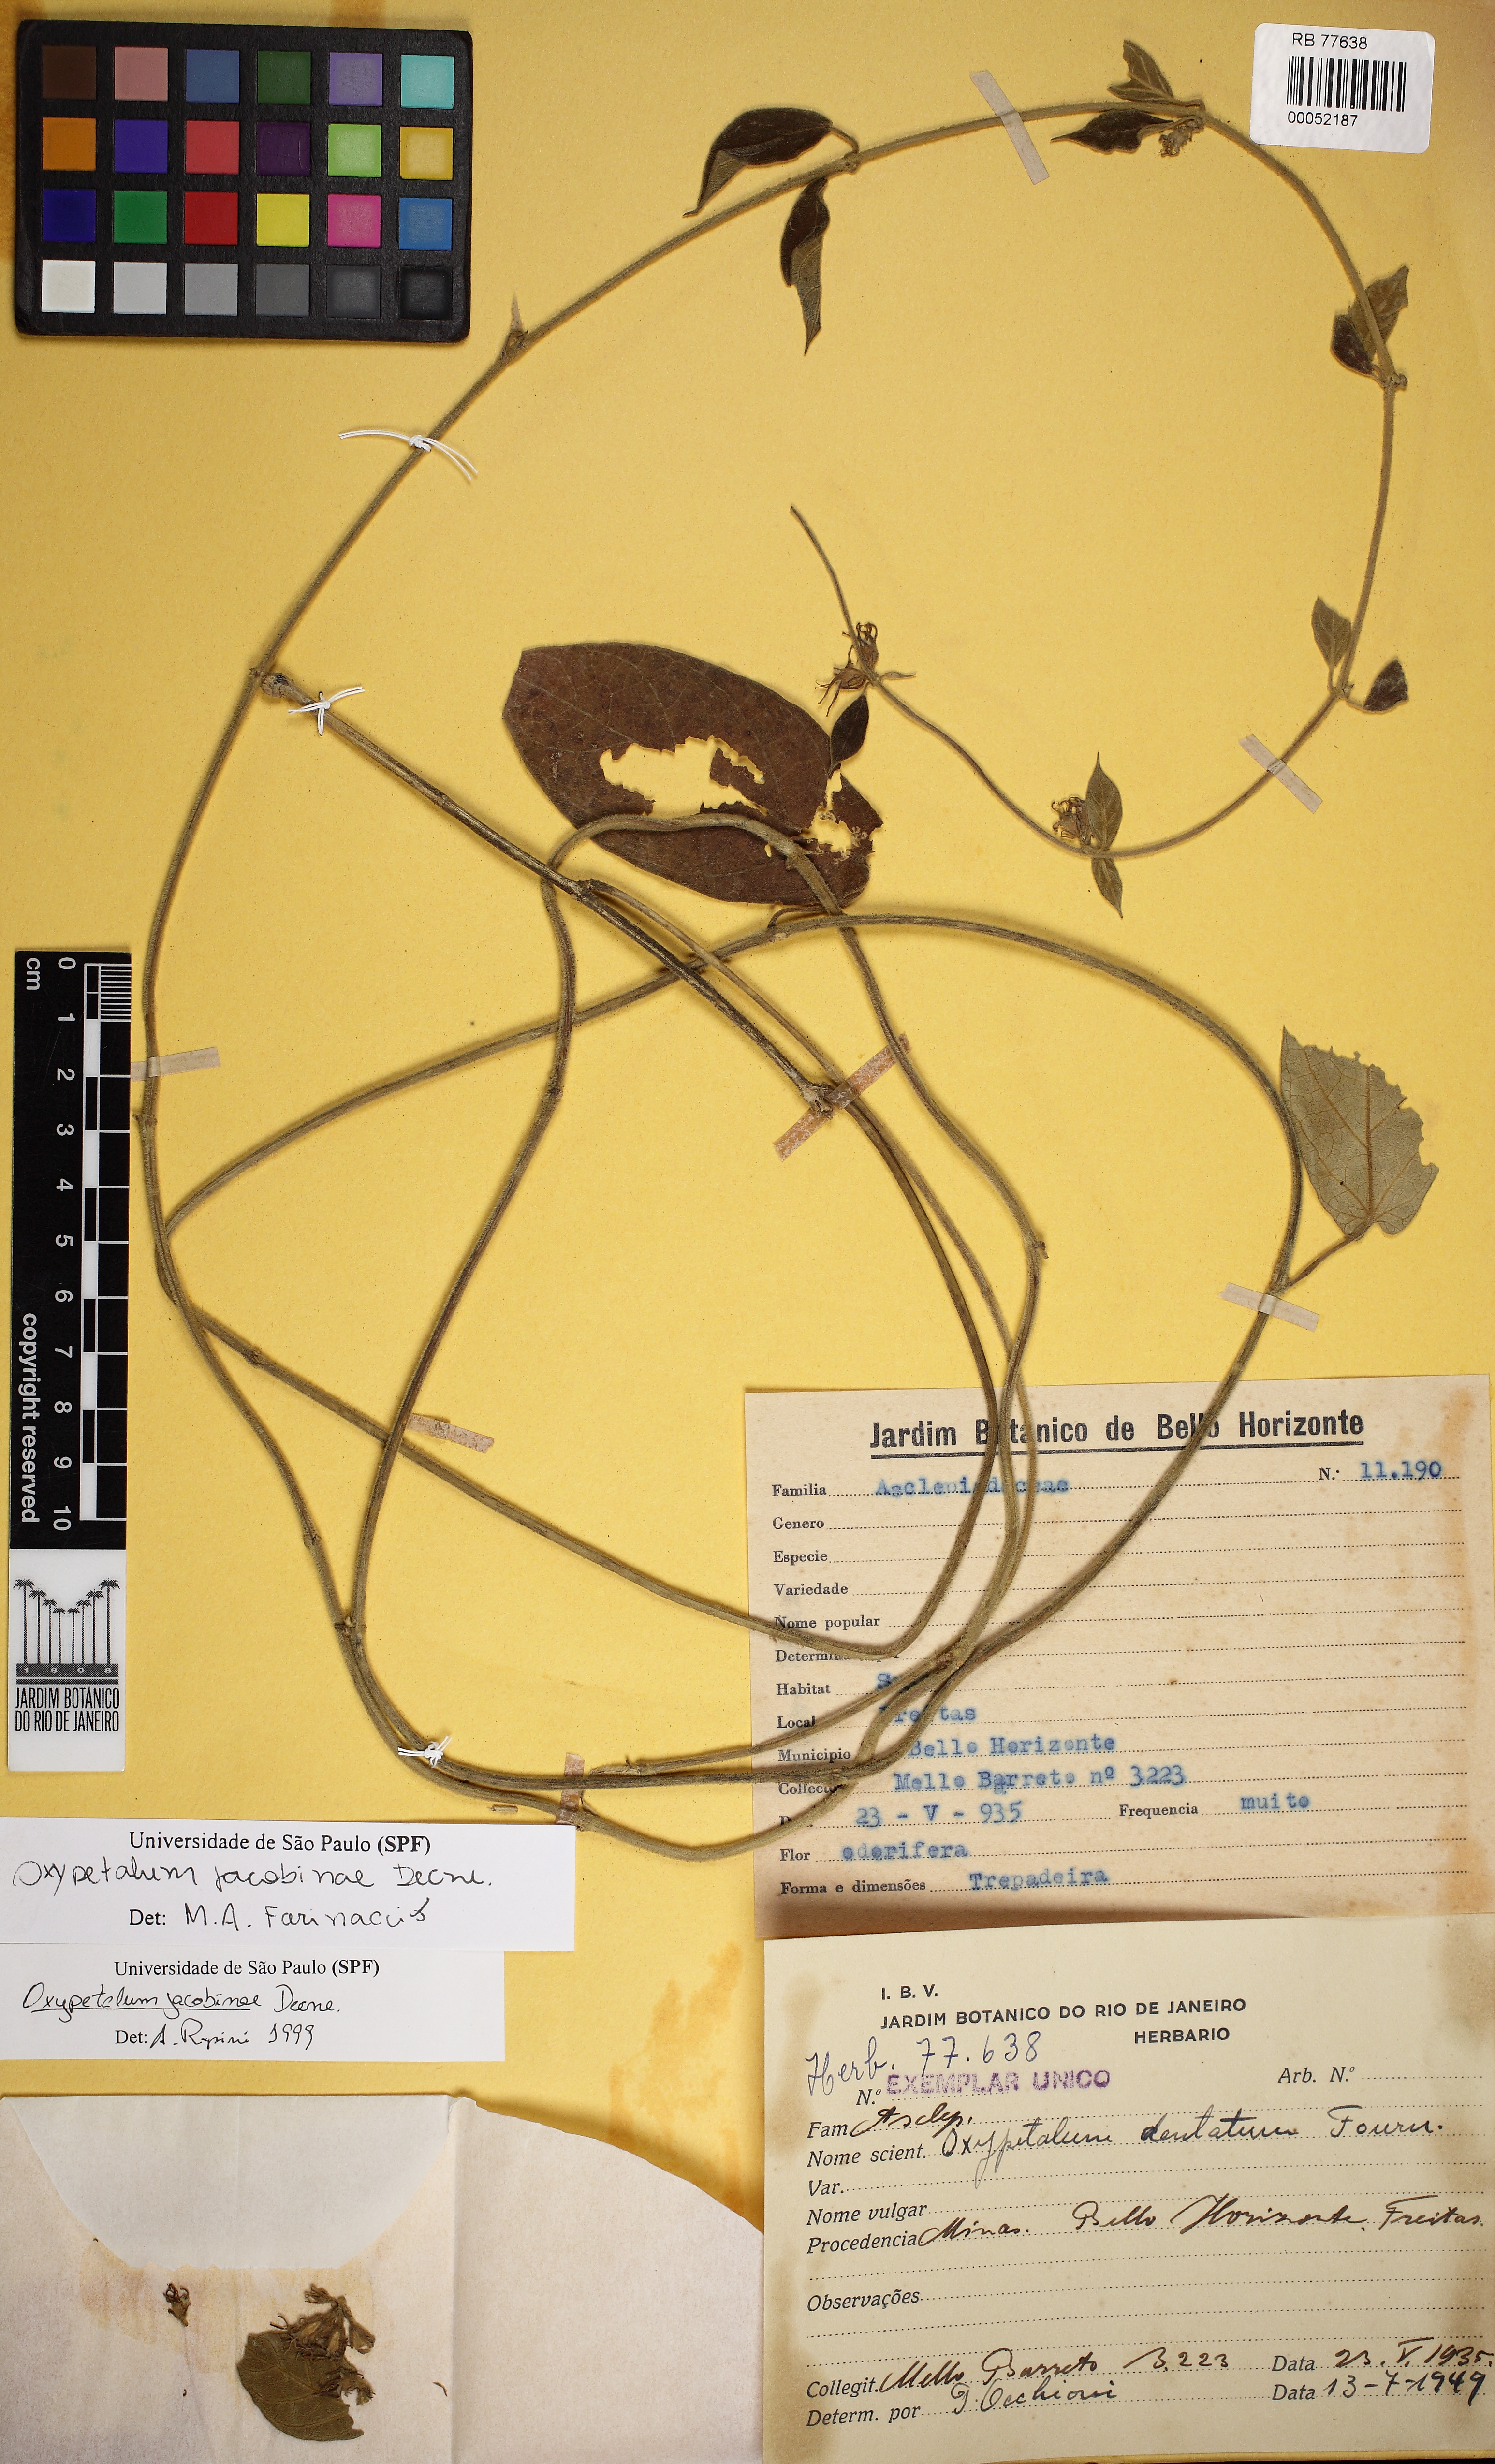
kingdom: Plantae
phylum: Tracheophyta
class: Magnoliopsida
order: Gentianales
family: Apocynaceae
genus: Oxypetalum
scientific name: Oxypetalum jacobinae
